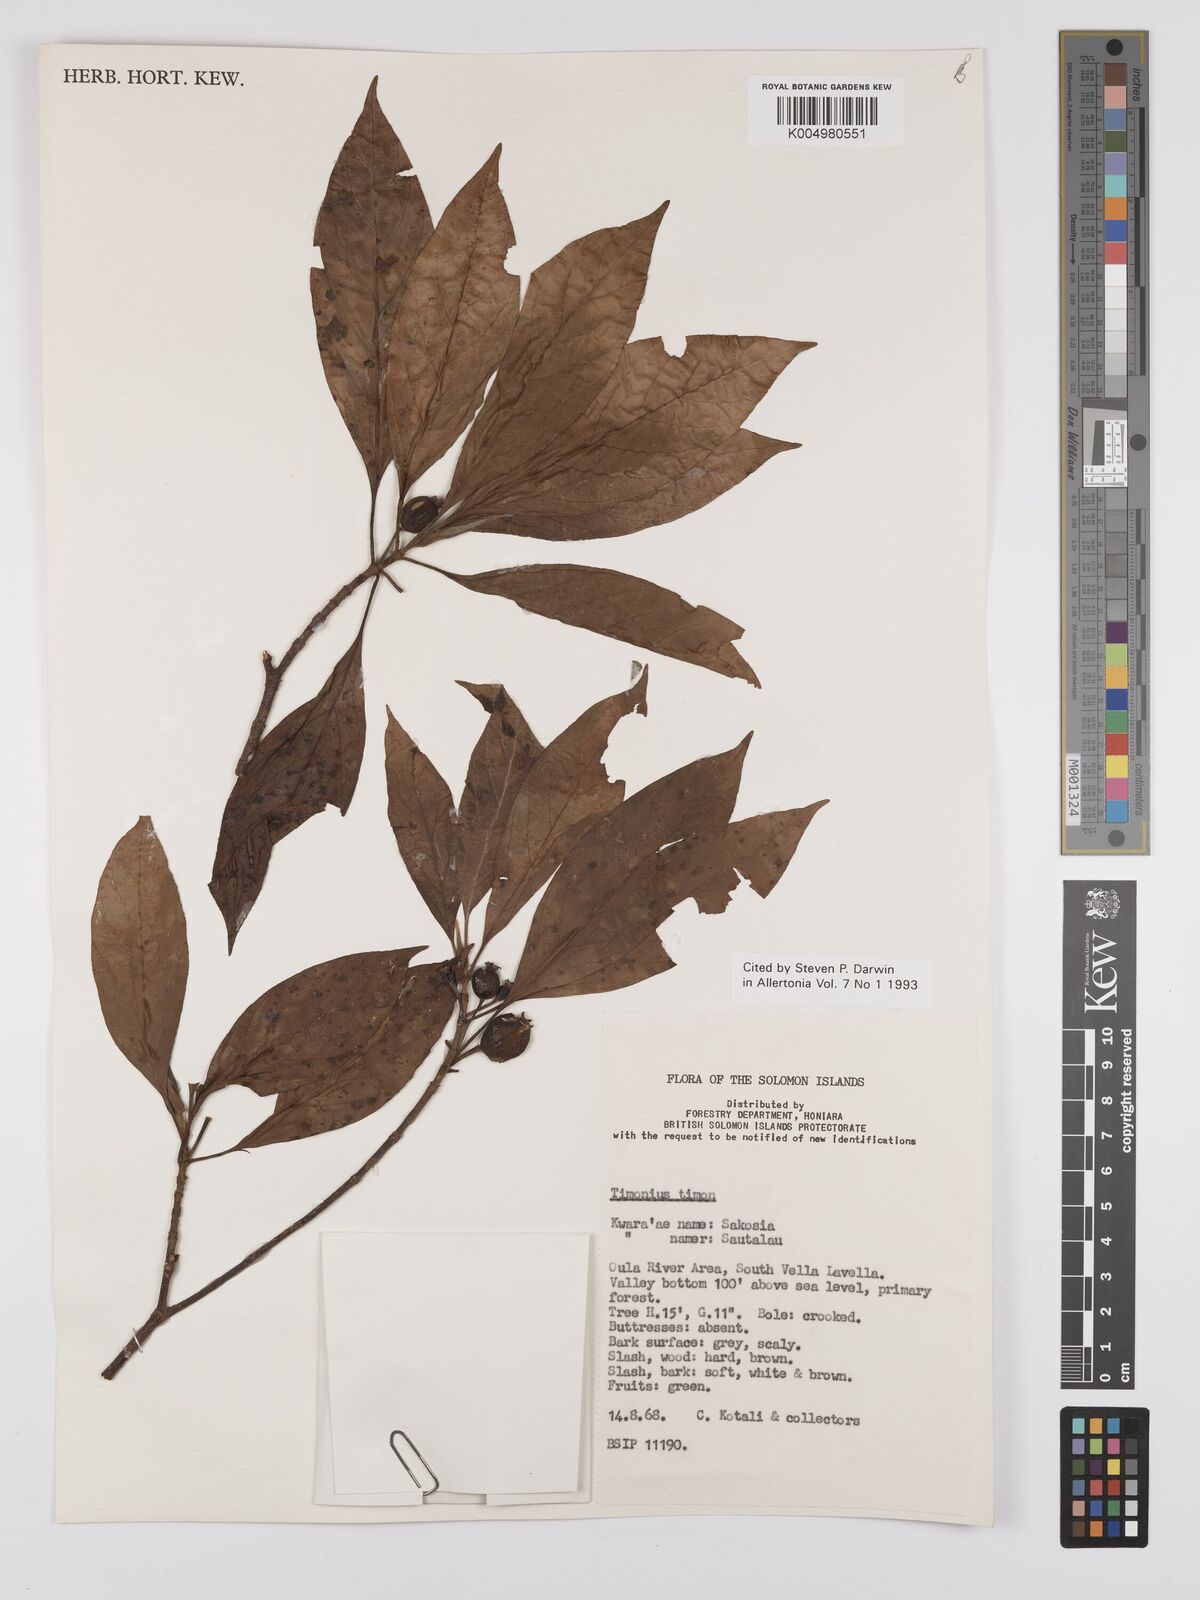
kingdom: Plantae
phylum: Tracheophyta
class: Magnoliopsida
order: Gentianales
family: Rubiaceae
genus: Timonius
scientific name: Timonius timon
